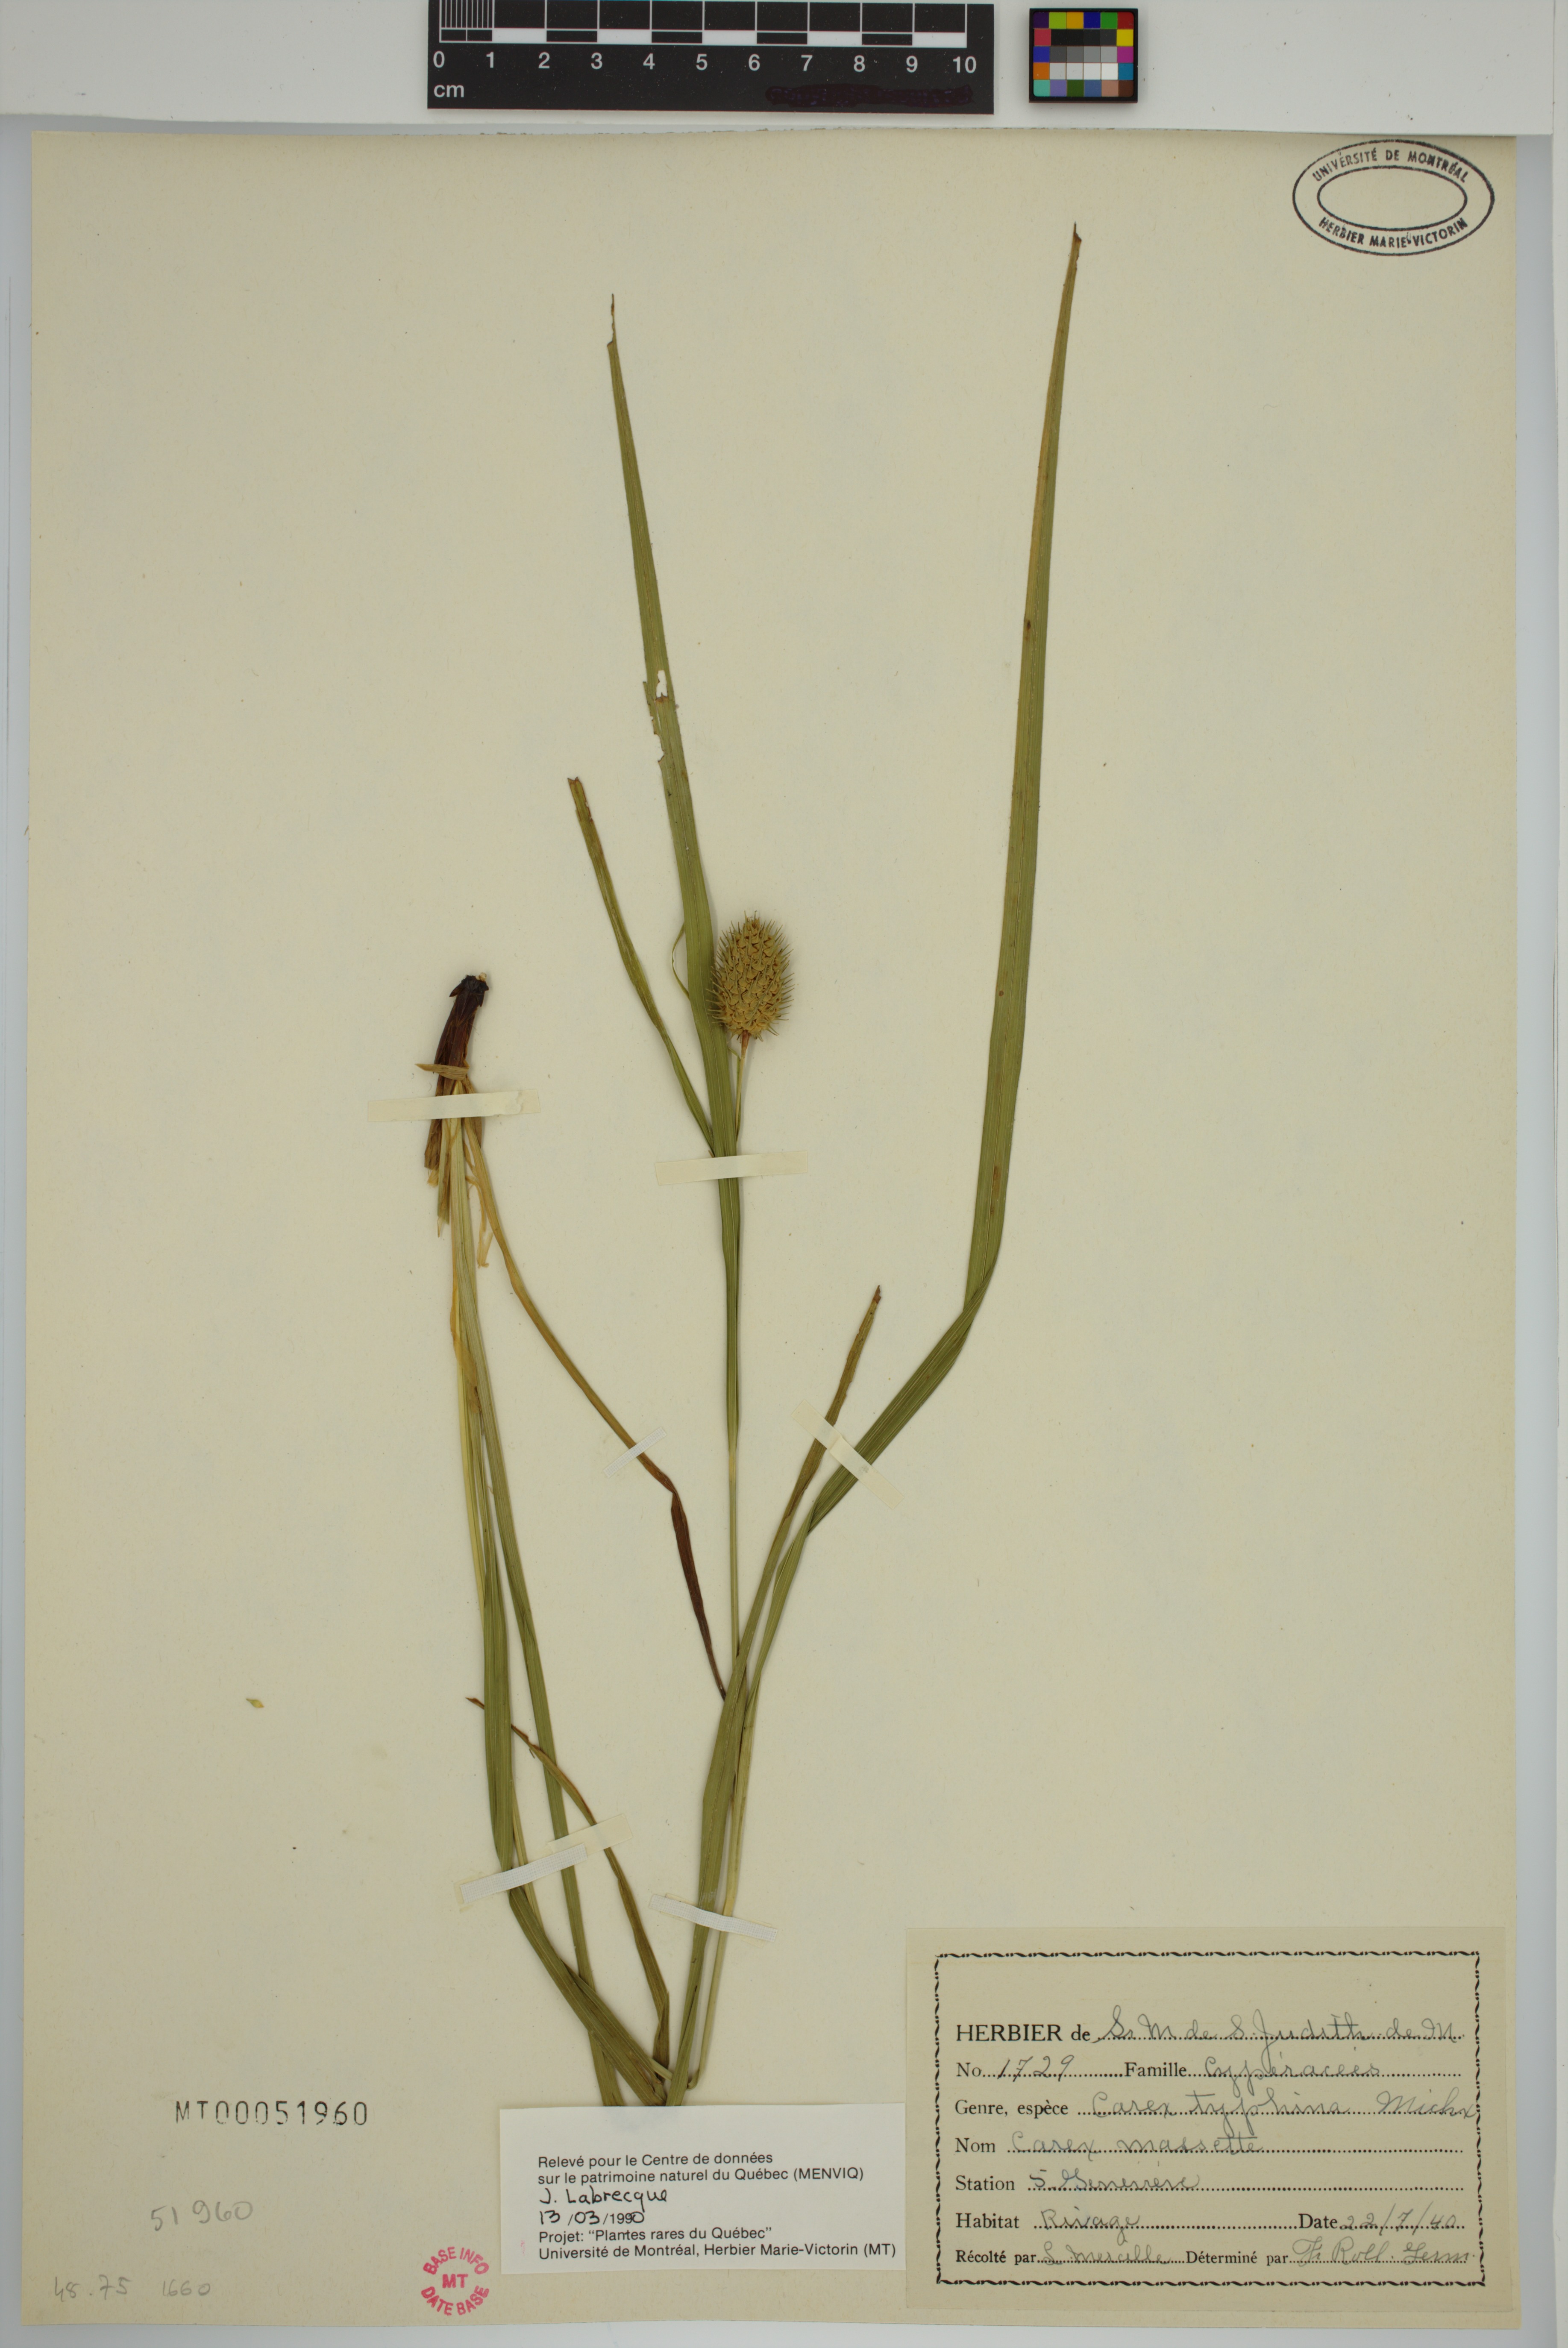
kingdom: Plantae
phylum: Tracheophyta
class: Liliopsida
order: Poales
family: Cyperaceae
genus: Carex
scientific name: Carex typhina
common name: Cattail sedge
